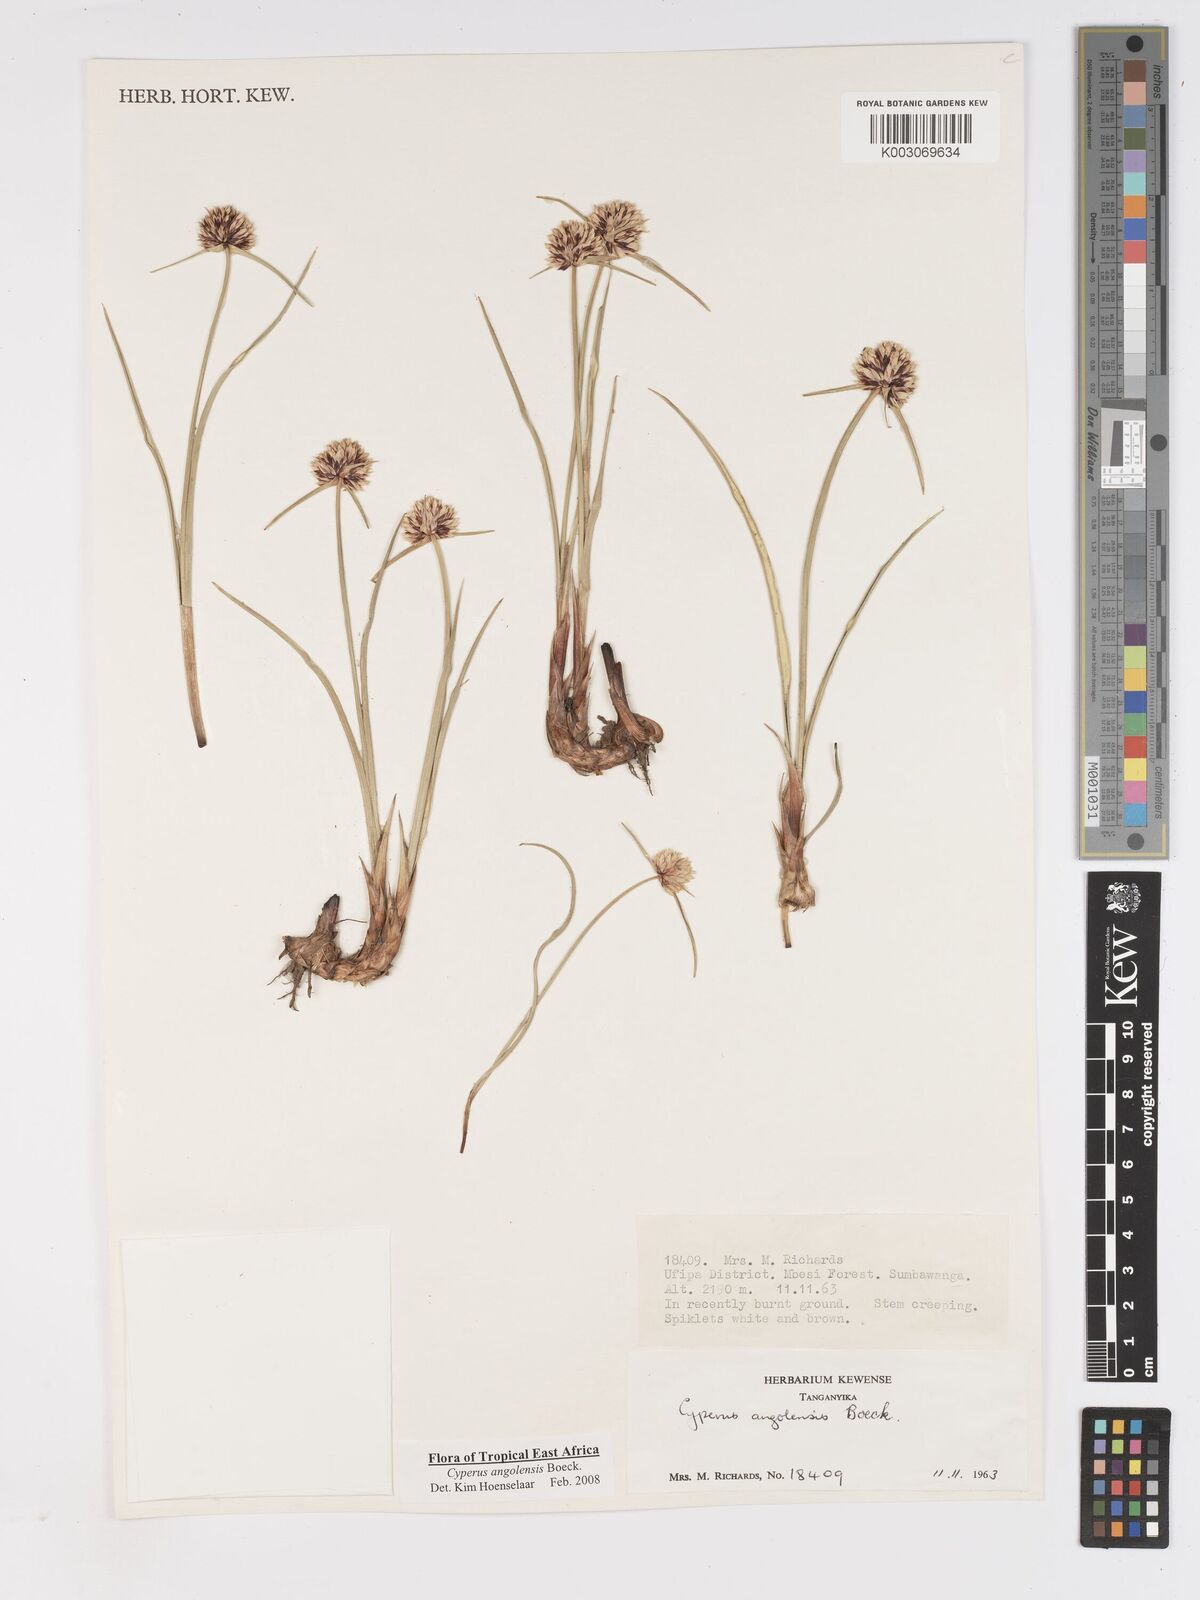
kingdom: Plantae
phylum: Tracheophyta
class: Liliopsida
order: Poales
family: Cyperaceae
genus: Cyperus
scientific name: Cyperus angolensis
